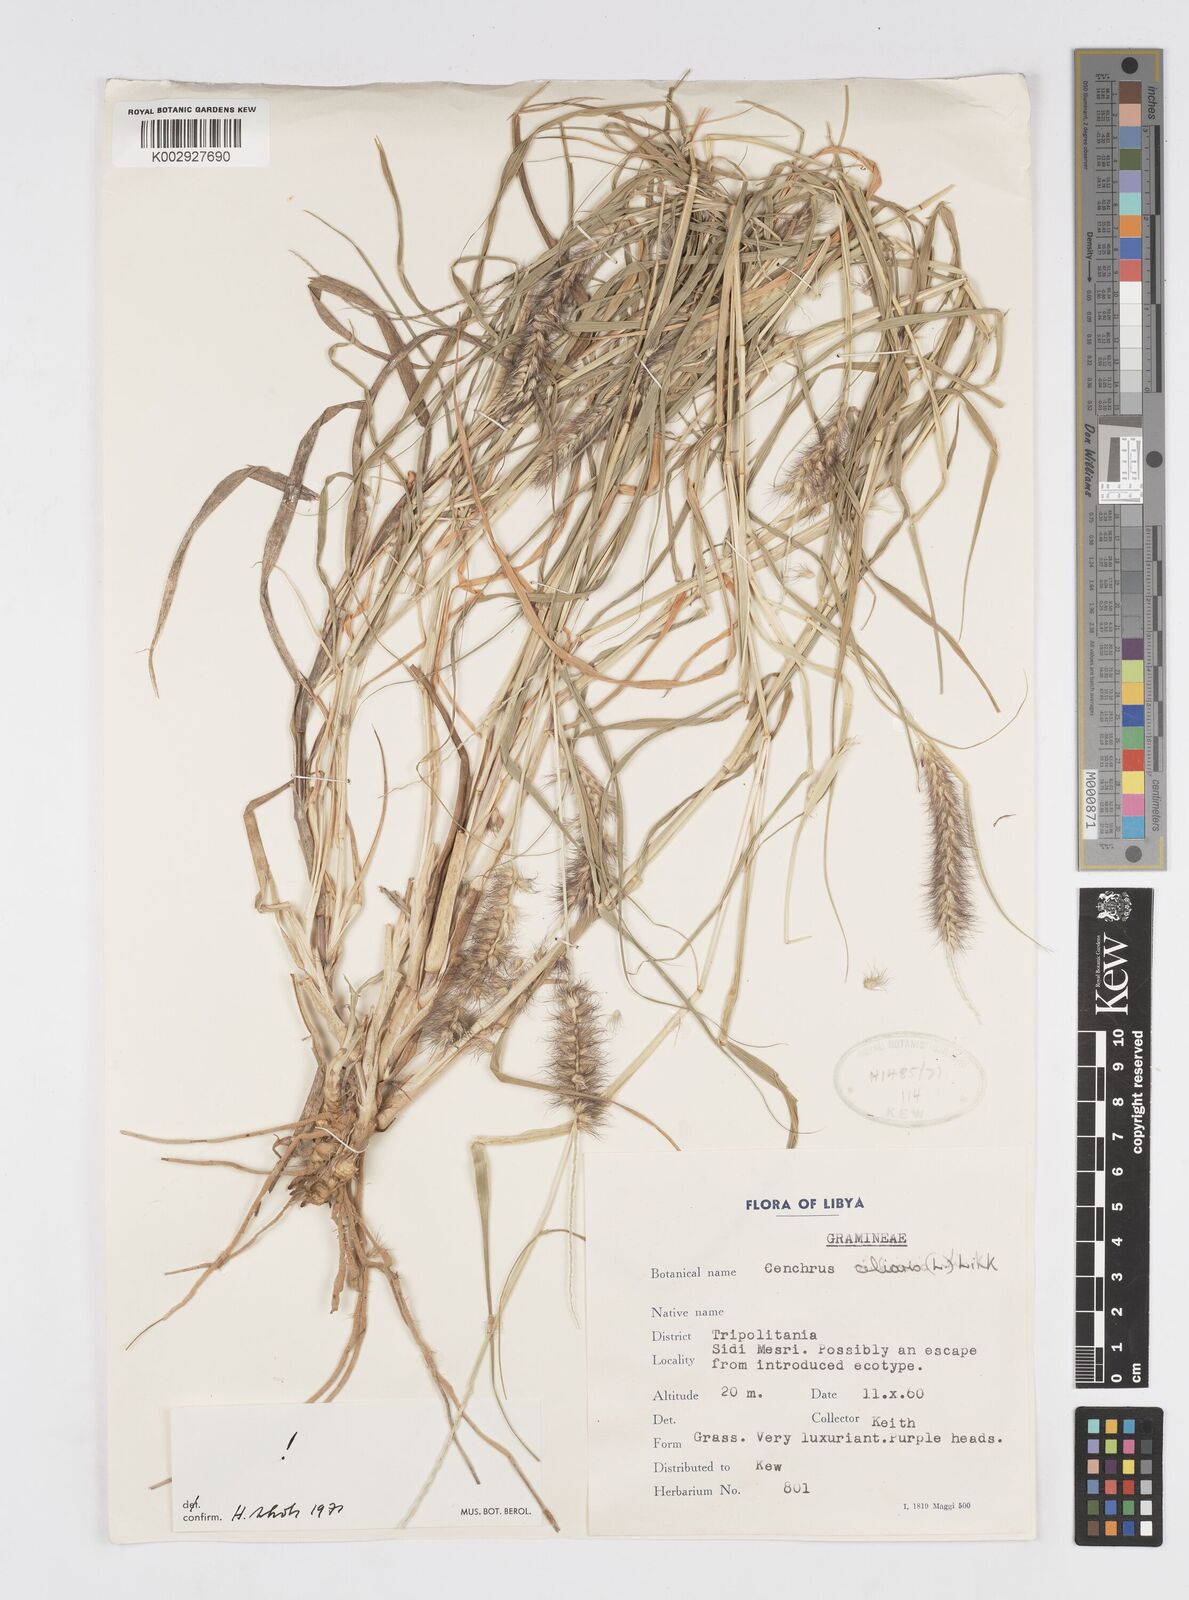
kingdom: Plantae
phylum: Tracheophyta
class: Liliopsida
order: Poales
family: Poaceae
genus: Cenchrus
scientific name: Cenchrus ciliaris
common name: Buffelgrass
